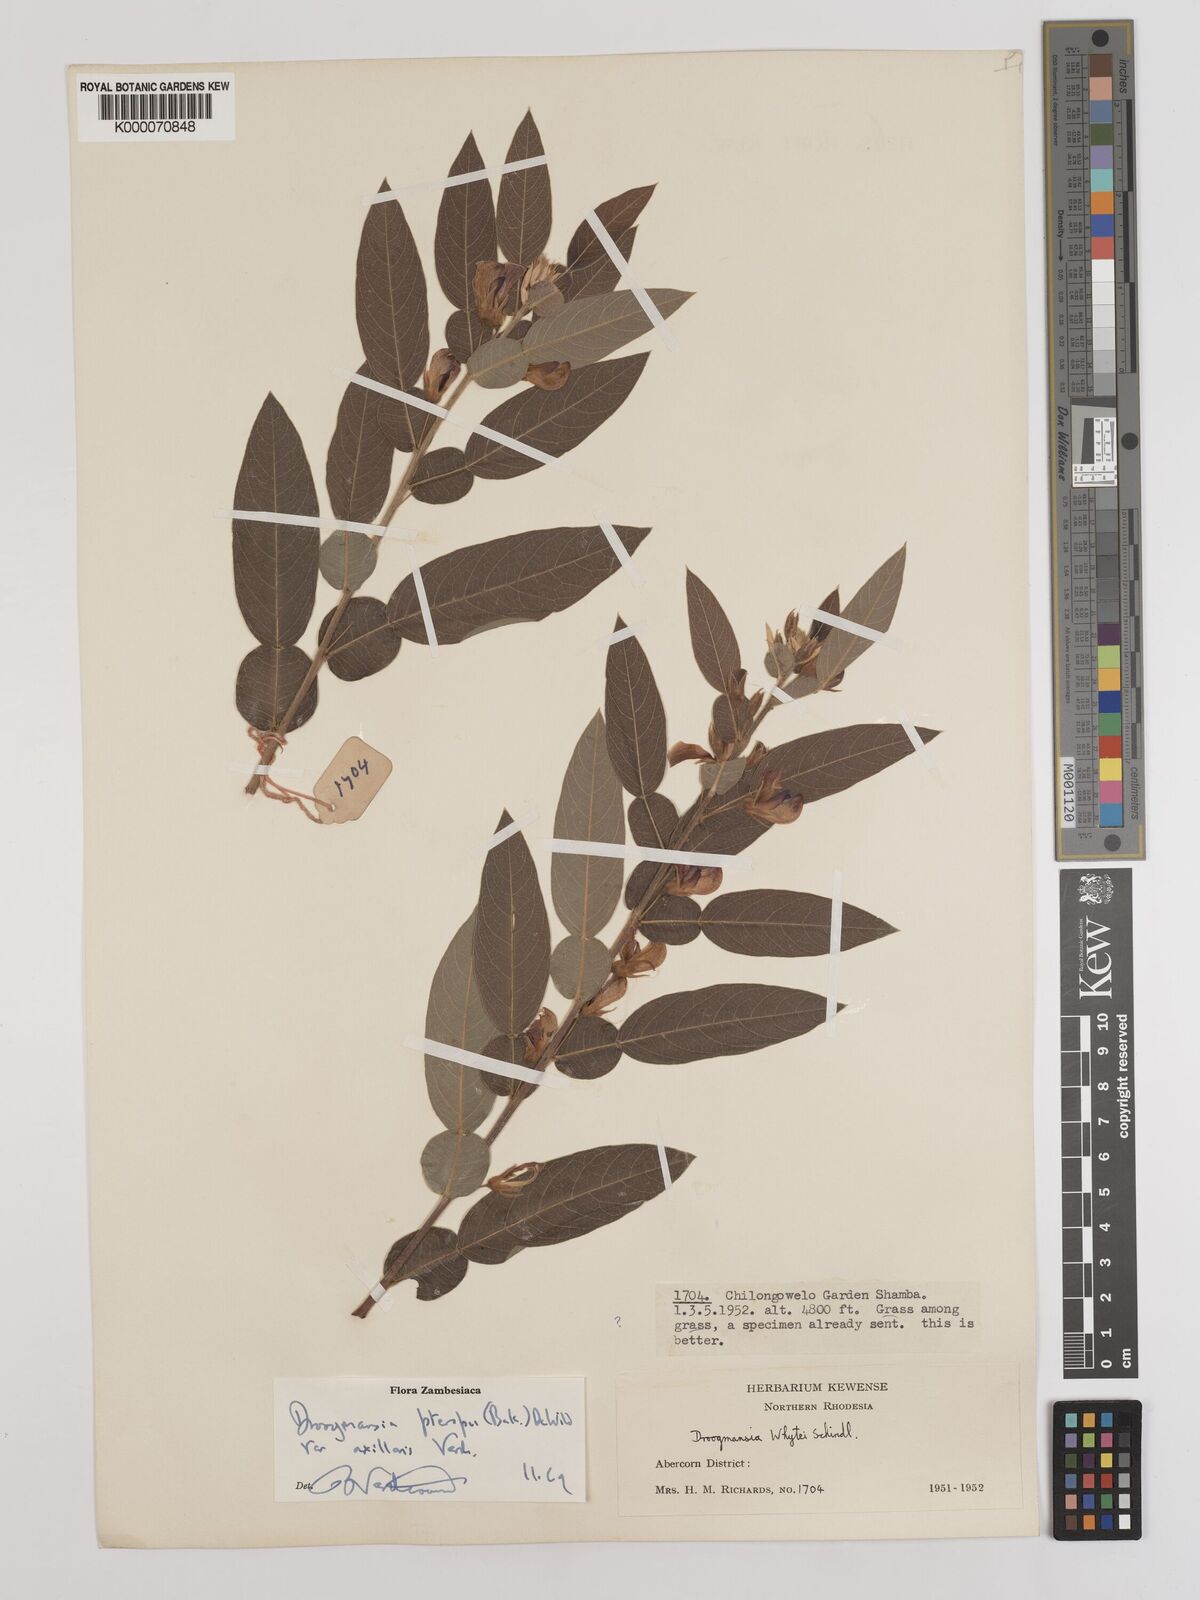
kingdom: Plantae
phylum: Tracheophyta
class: Magnoliopsida
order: Fabales
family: Fabaceae
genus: Droogmansia
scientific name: Droogmansia pteropus
